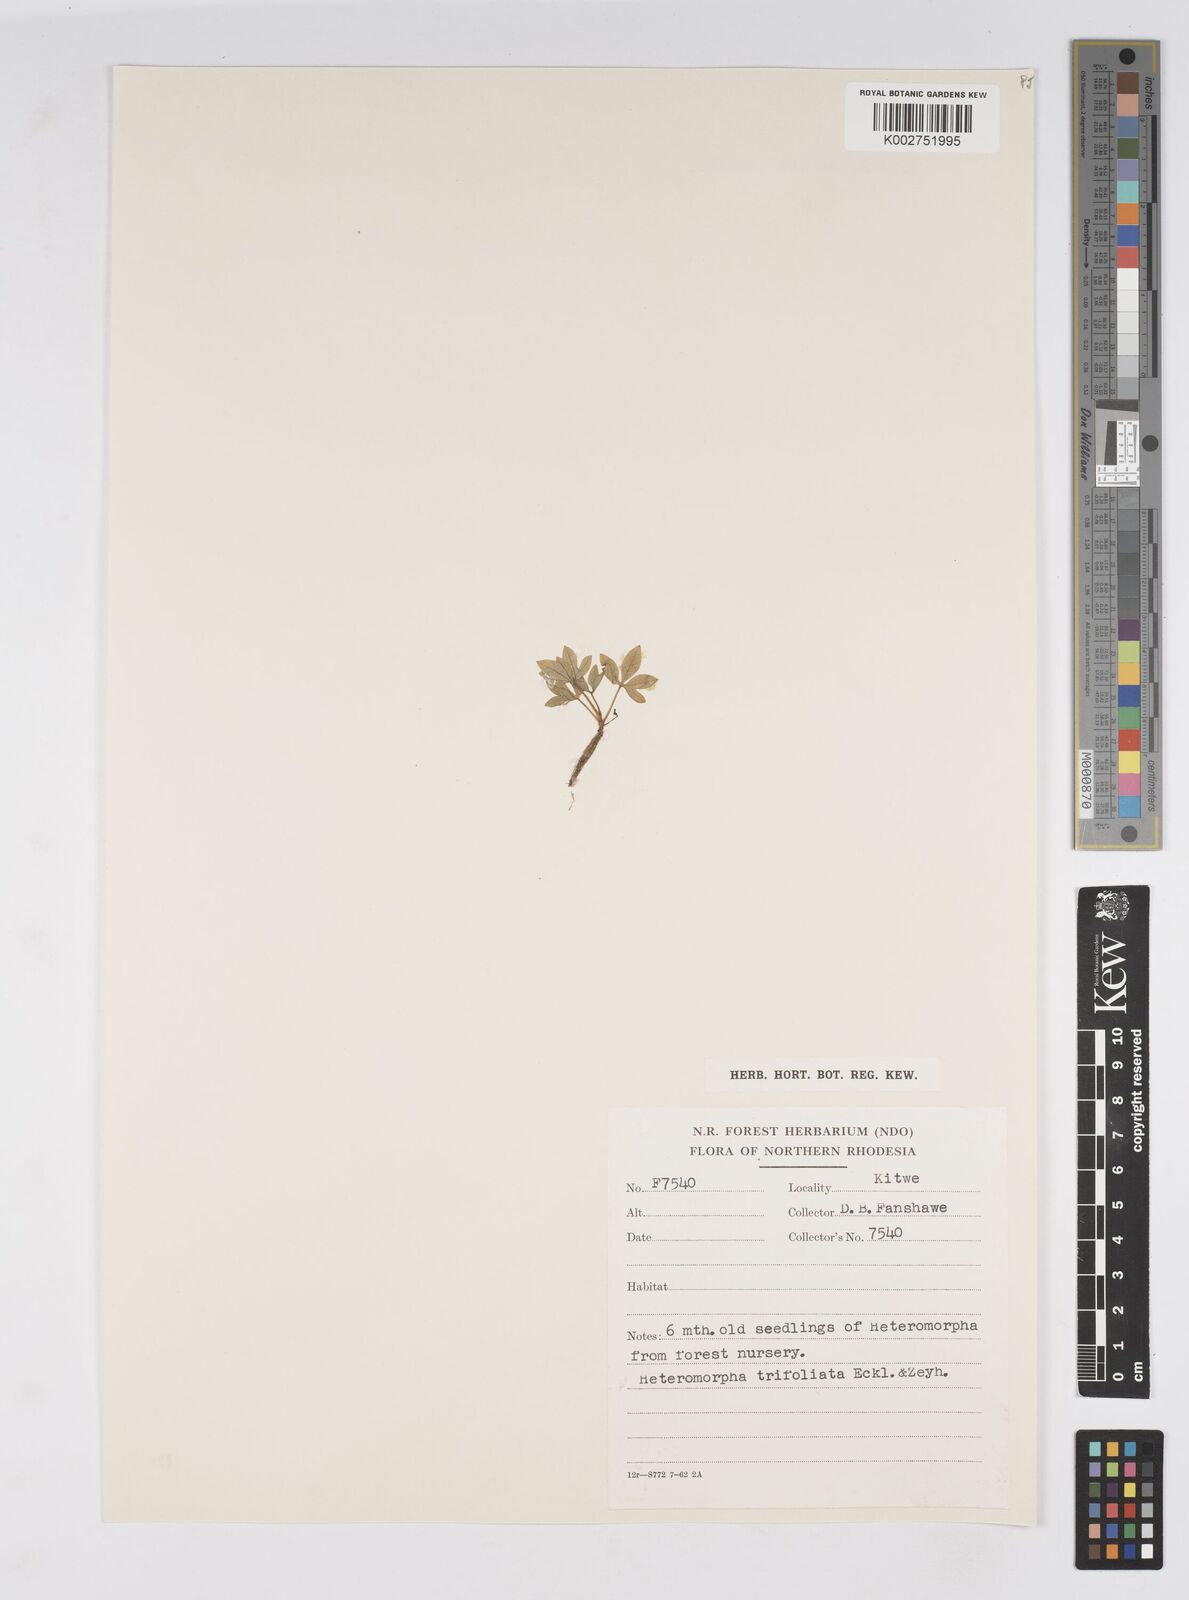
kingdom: Plantae
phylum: Tracheophyta
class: Magnoliopsida
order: Apiales
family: Apiaceae
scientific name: Apiaceae
